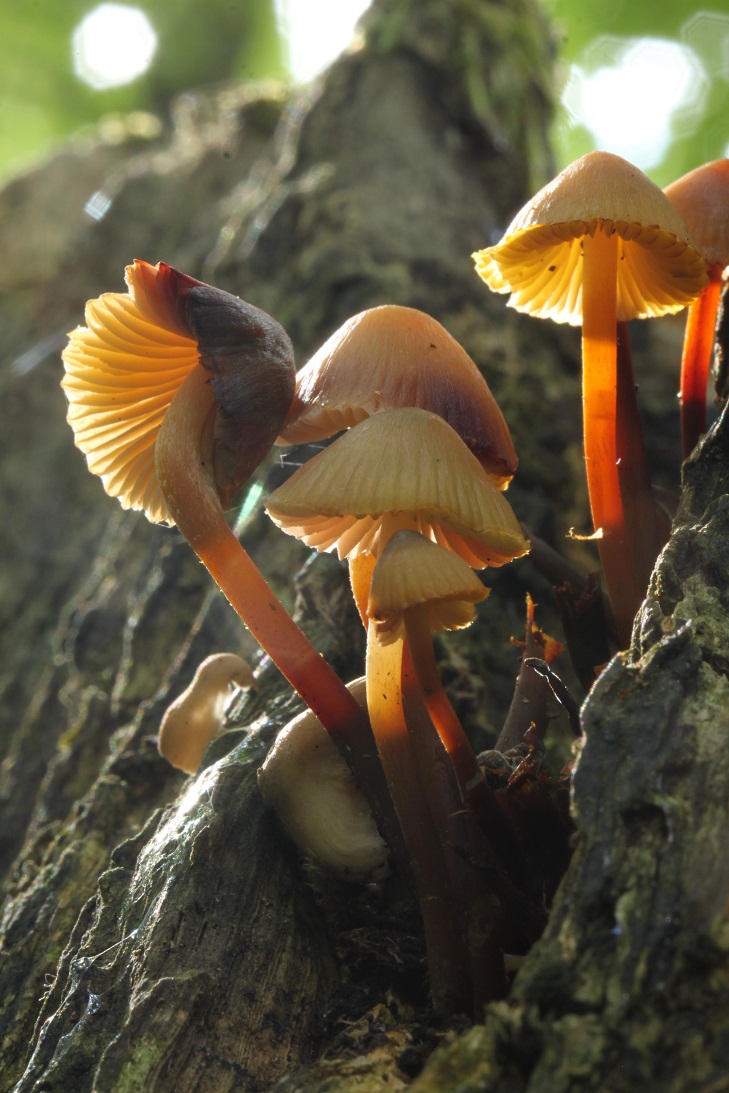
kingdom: Fungi
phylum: Basidiomycota
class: Agaricomycetes
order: Agaricales
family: Mycenaceae
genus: Mycena
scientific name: Mycena inclinata
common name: nikkende huesvamp
